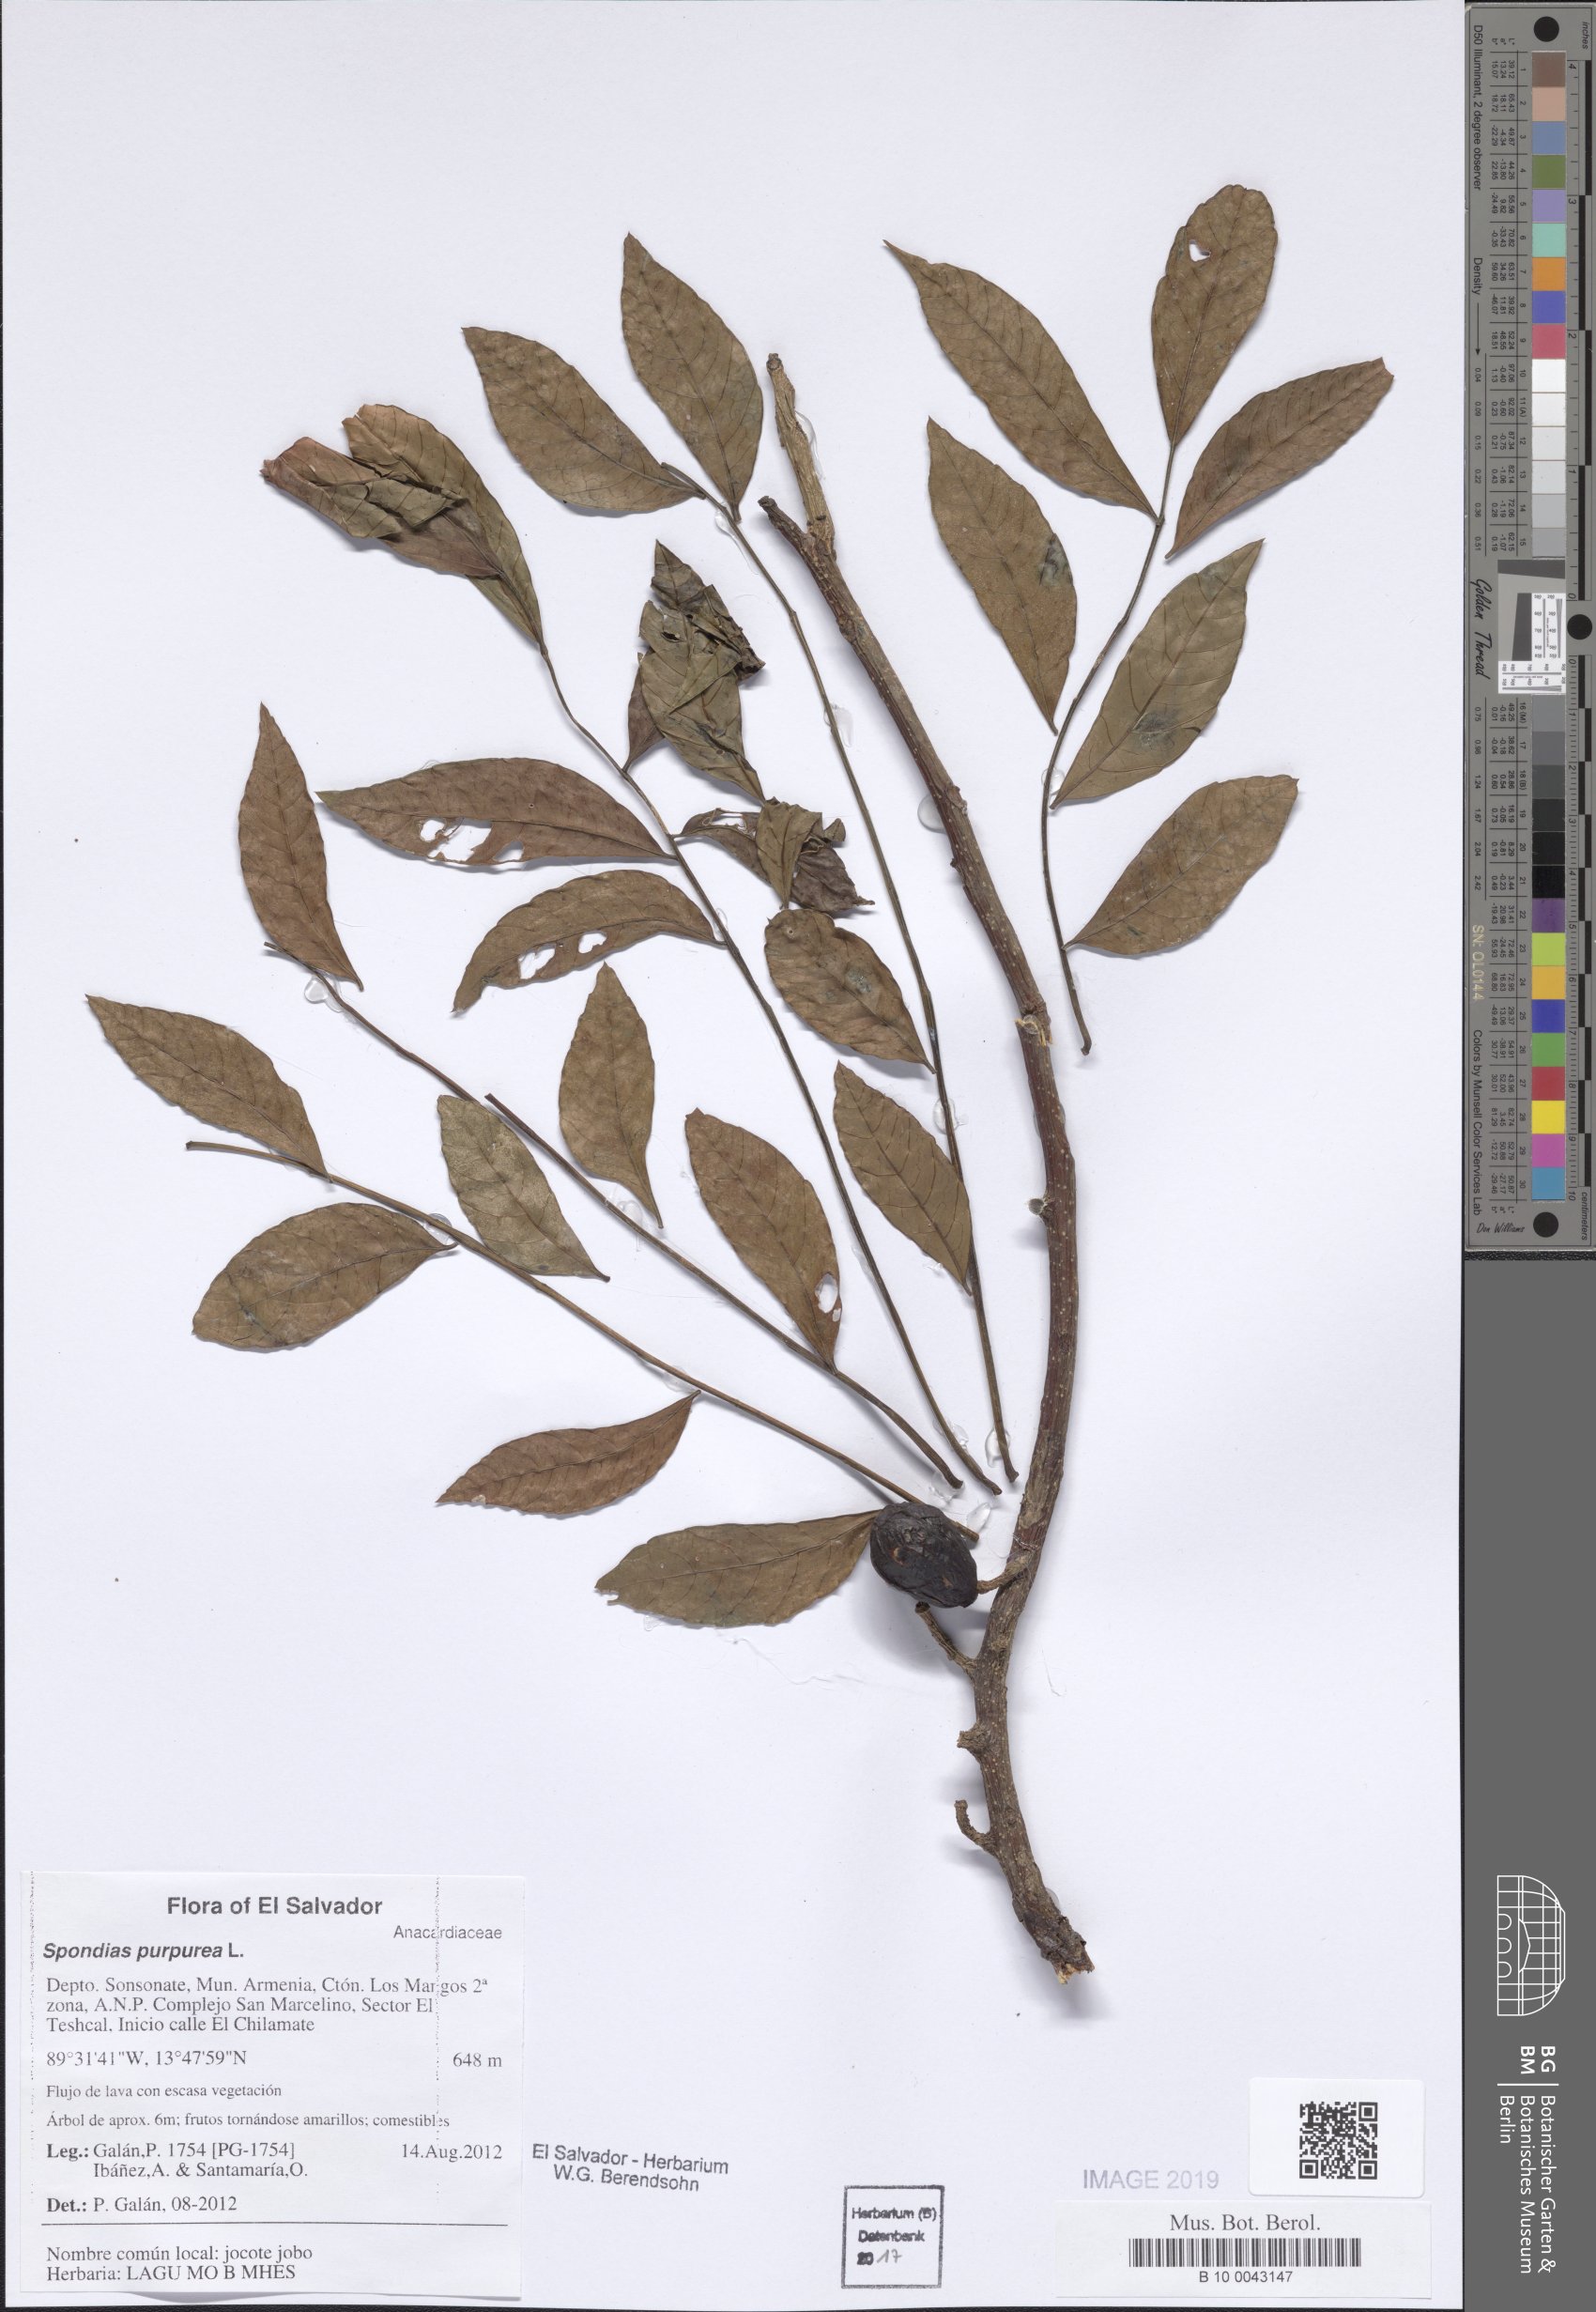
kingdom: Plantae
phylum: Tracheophyta
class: Magnoliopsida
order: Sapindales
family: Anacardiaceae
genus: Spondias
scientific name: Spondias purpurea
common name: Purple mombin
